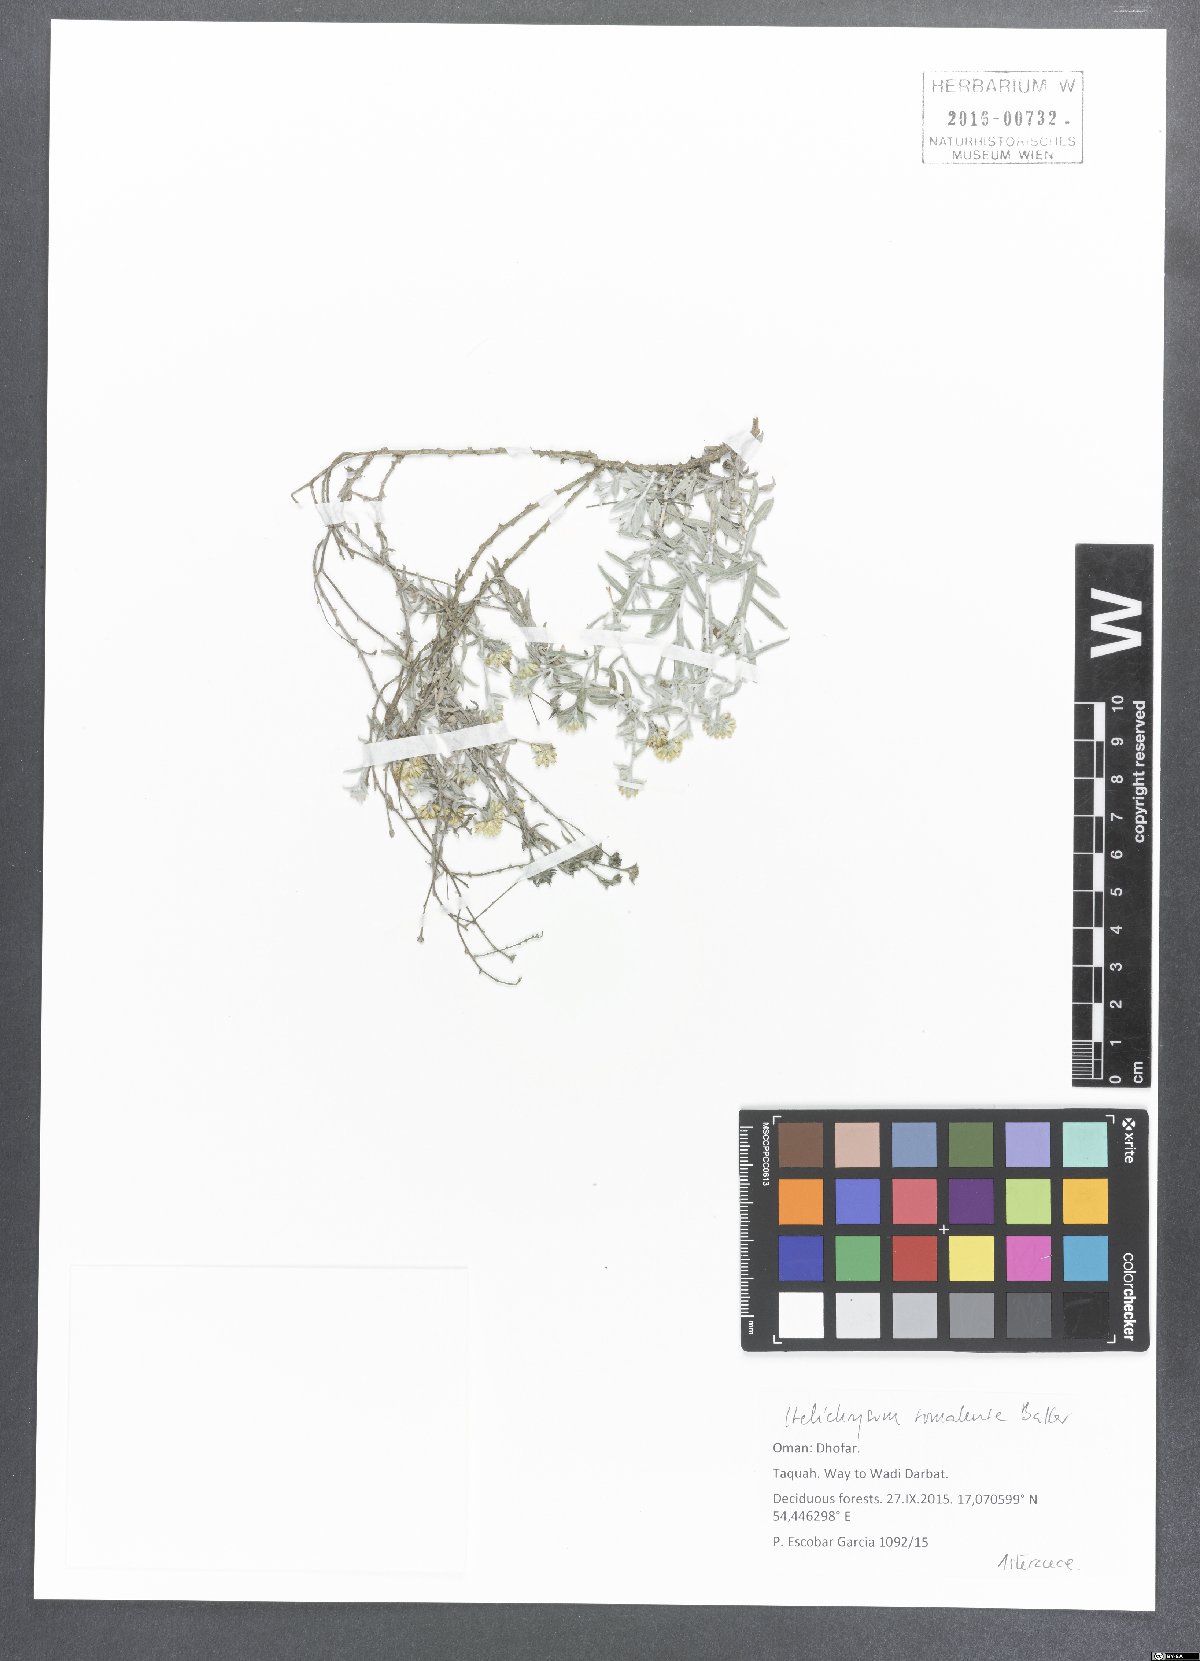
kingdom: Plantae
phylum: Tracheophyta
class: Magnoliopsida
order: Asterales
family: Asteraceae
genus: Helichrysum
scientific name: Helichrysum somalense
